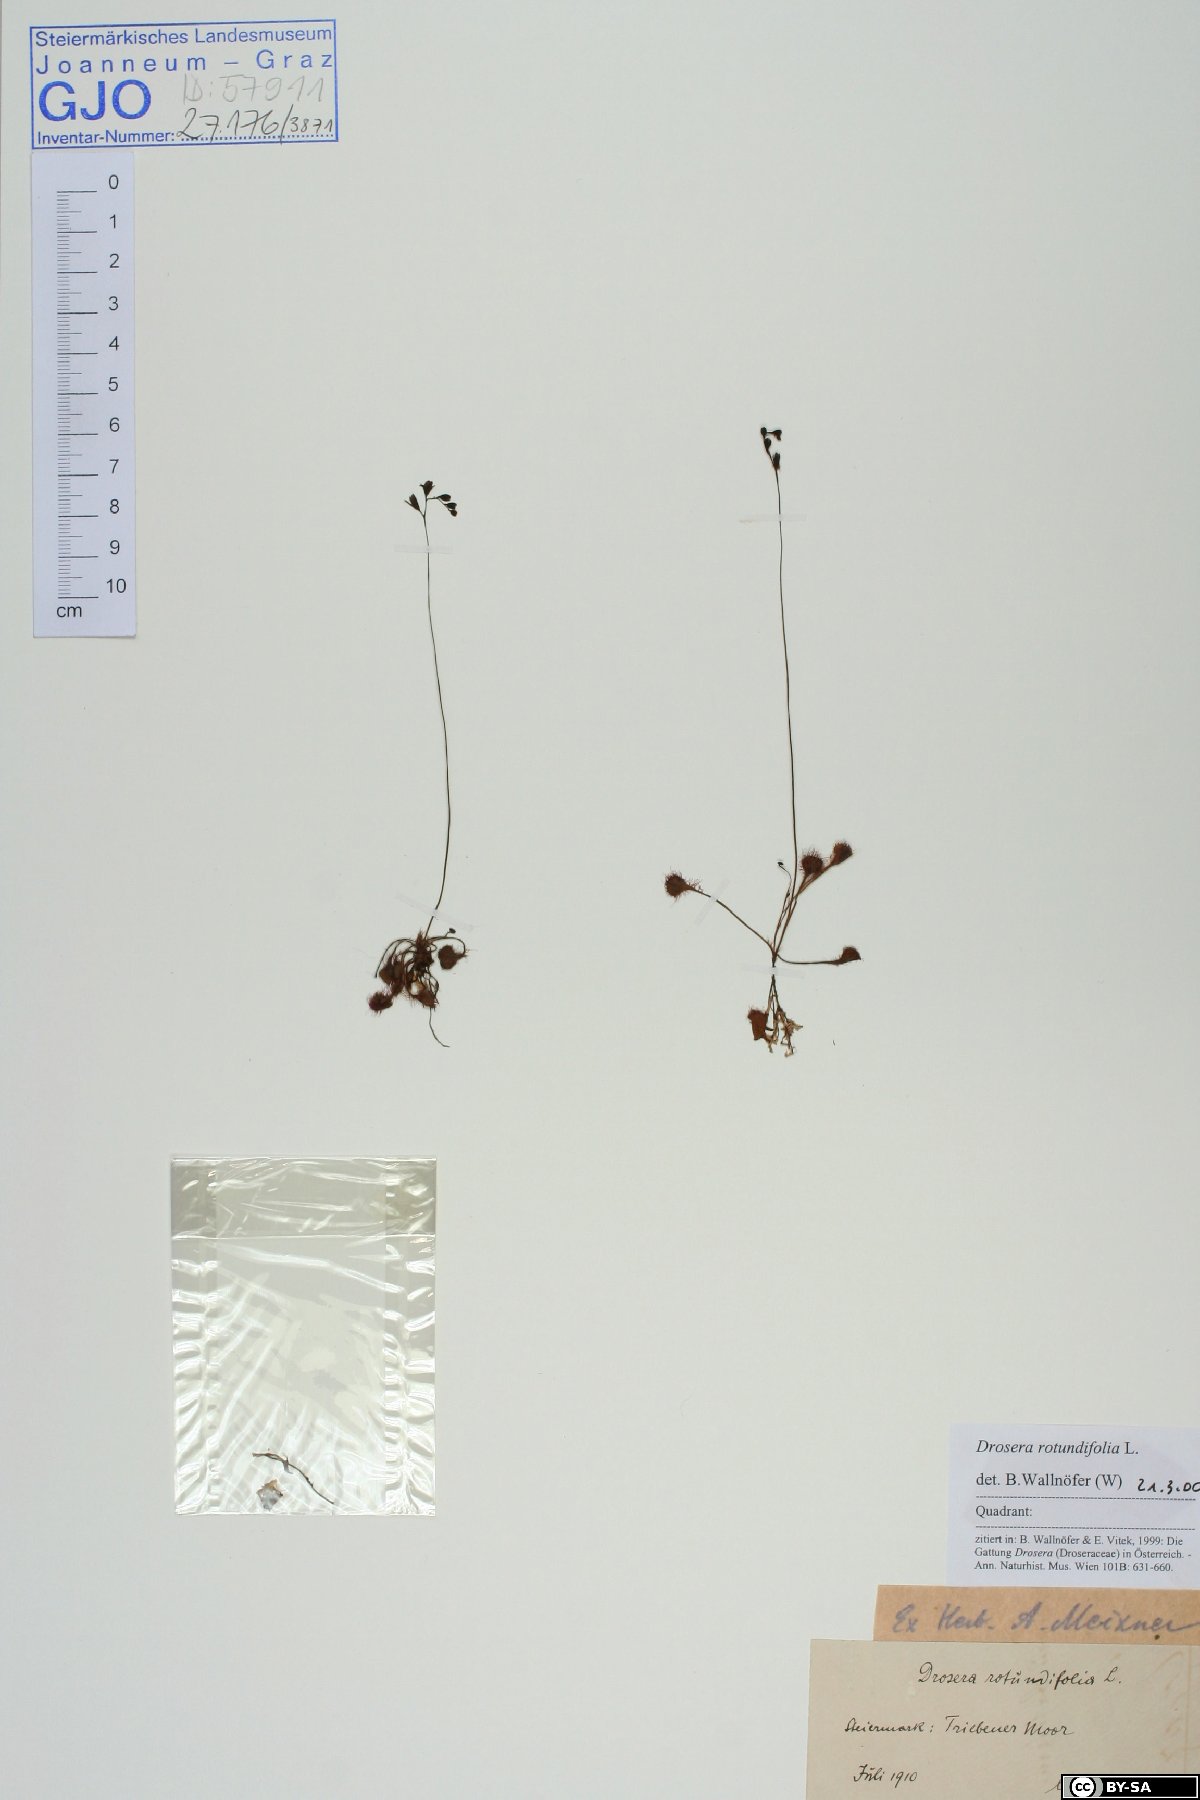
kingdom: Plantae
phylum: Tracheophyta
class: Magnoliopsida
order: Caryophyllales
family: Droseraceae
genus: Drosera
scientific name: Drosera rotundifolia
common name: Round-leaved sundew
